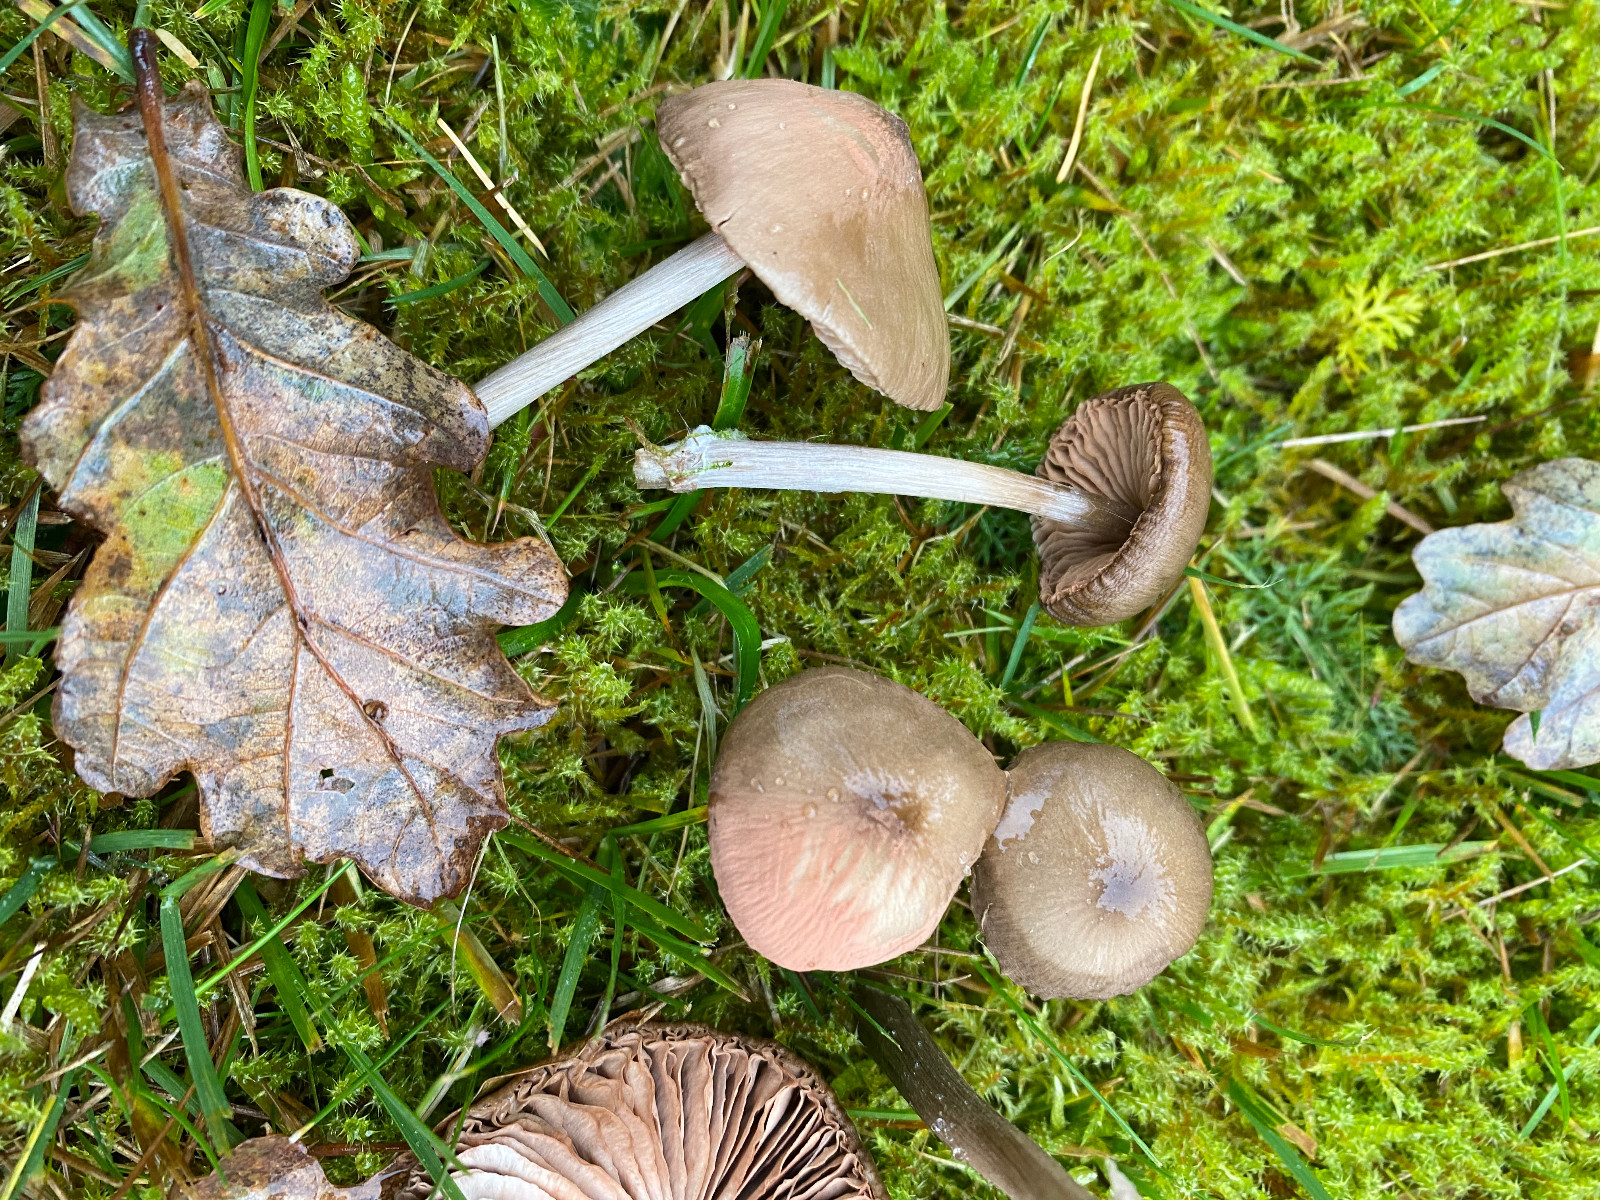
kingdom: Fungi
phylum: Basidiomycota
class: Agaricomycetes
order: Agaricales
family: Entolomataceae
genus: Entoloma
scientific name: Entoloma
